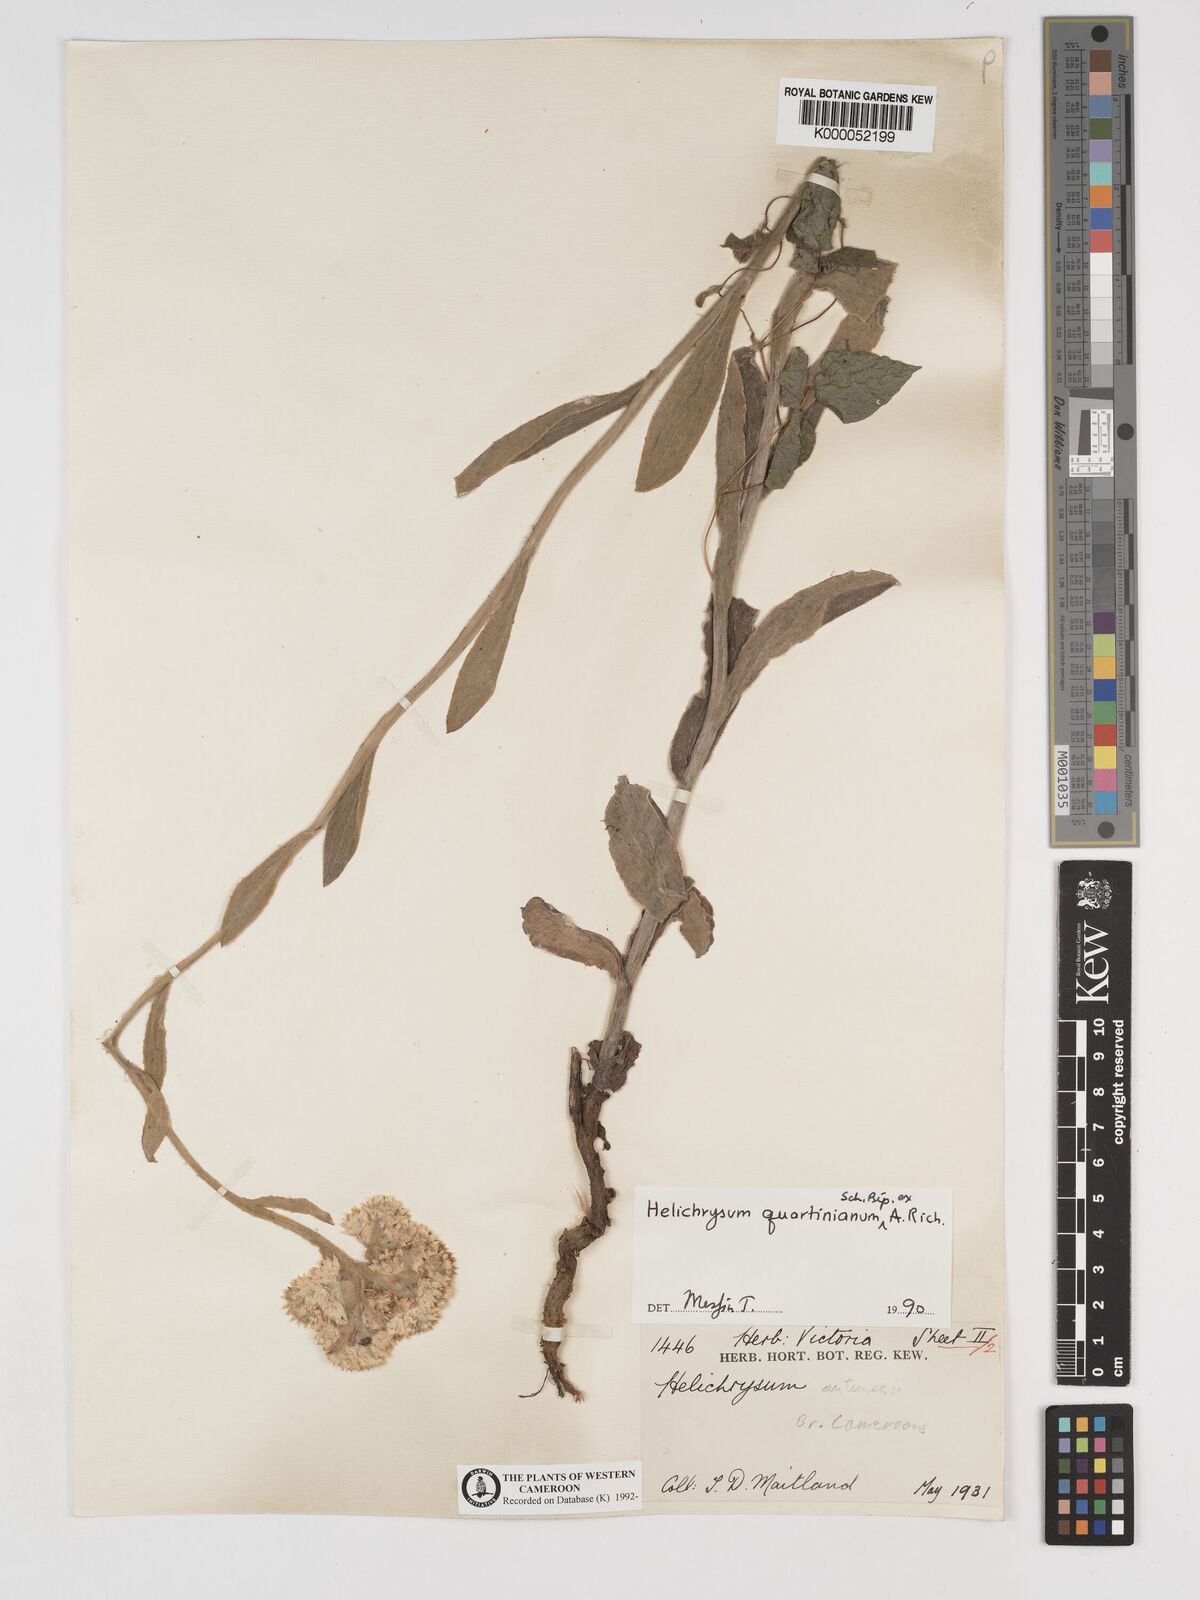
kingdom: Plantae
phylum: Tracheophyta
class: Magnoliopsida
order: Asterales
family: Asteraceae
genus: Helichrysum
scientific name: Helichrysum quartinianum
